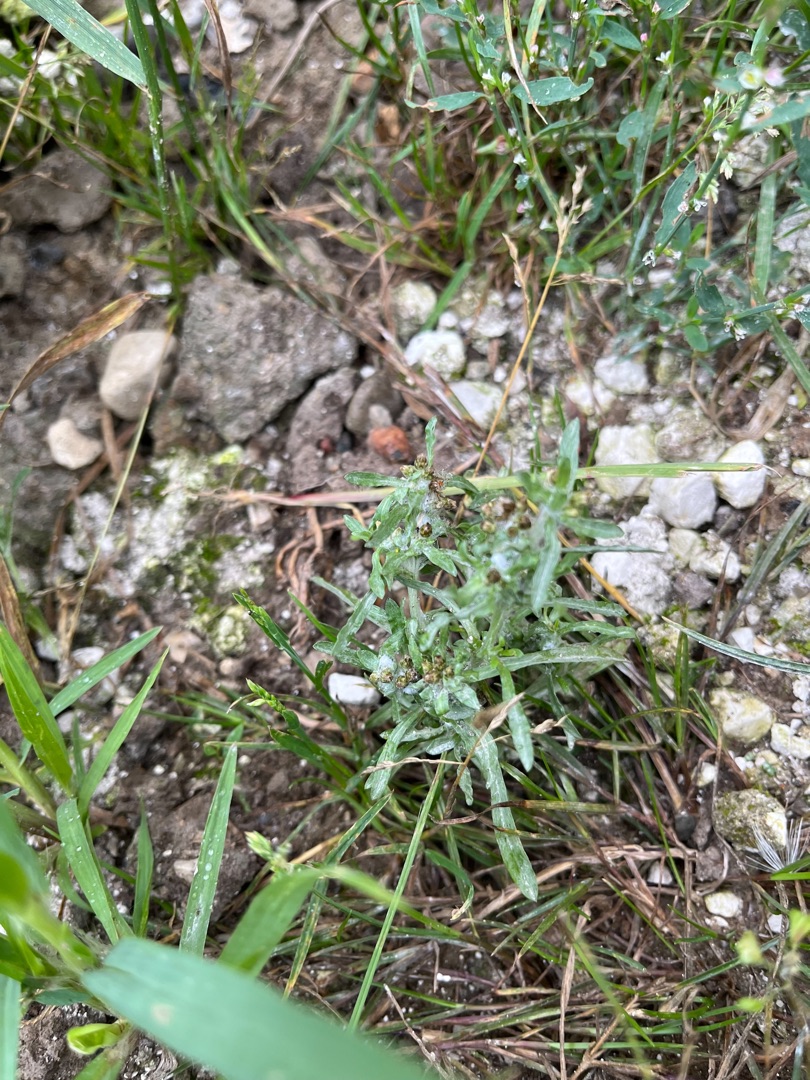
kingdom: Plantae
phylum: Tracheophyta
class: Magnoliopsida
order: Asterales
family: Asteraceae
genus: Gnaphalium
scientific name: Gnaphalium uliginosum
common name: Sump-evighedsblomst
